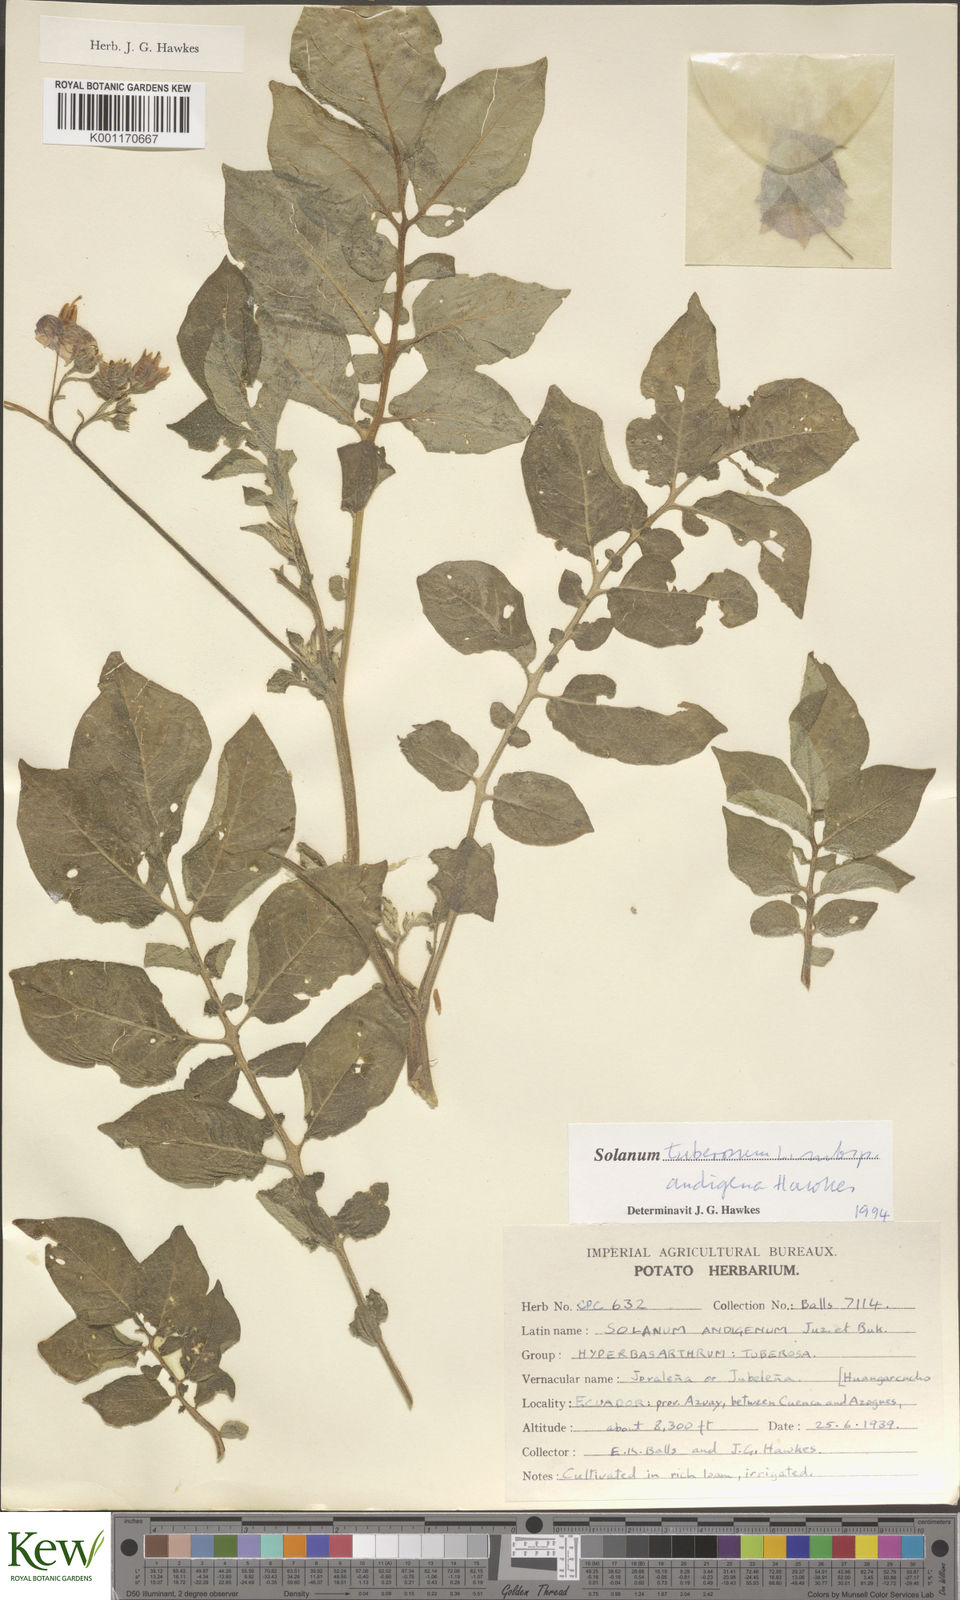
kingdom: Plantae
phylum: Tracheophyta
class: Magnoliopsida
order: Solanales
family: Solanaceae
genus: Solanum
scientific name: Solanum tuberosum
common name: Potato
